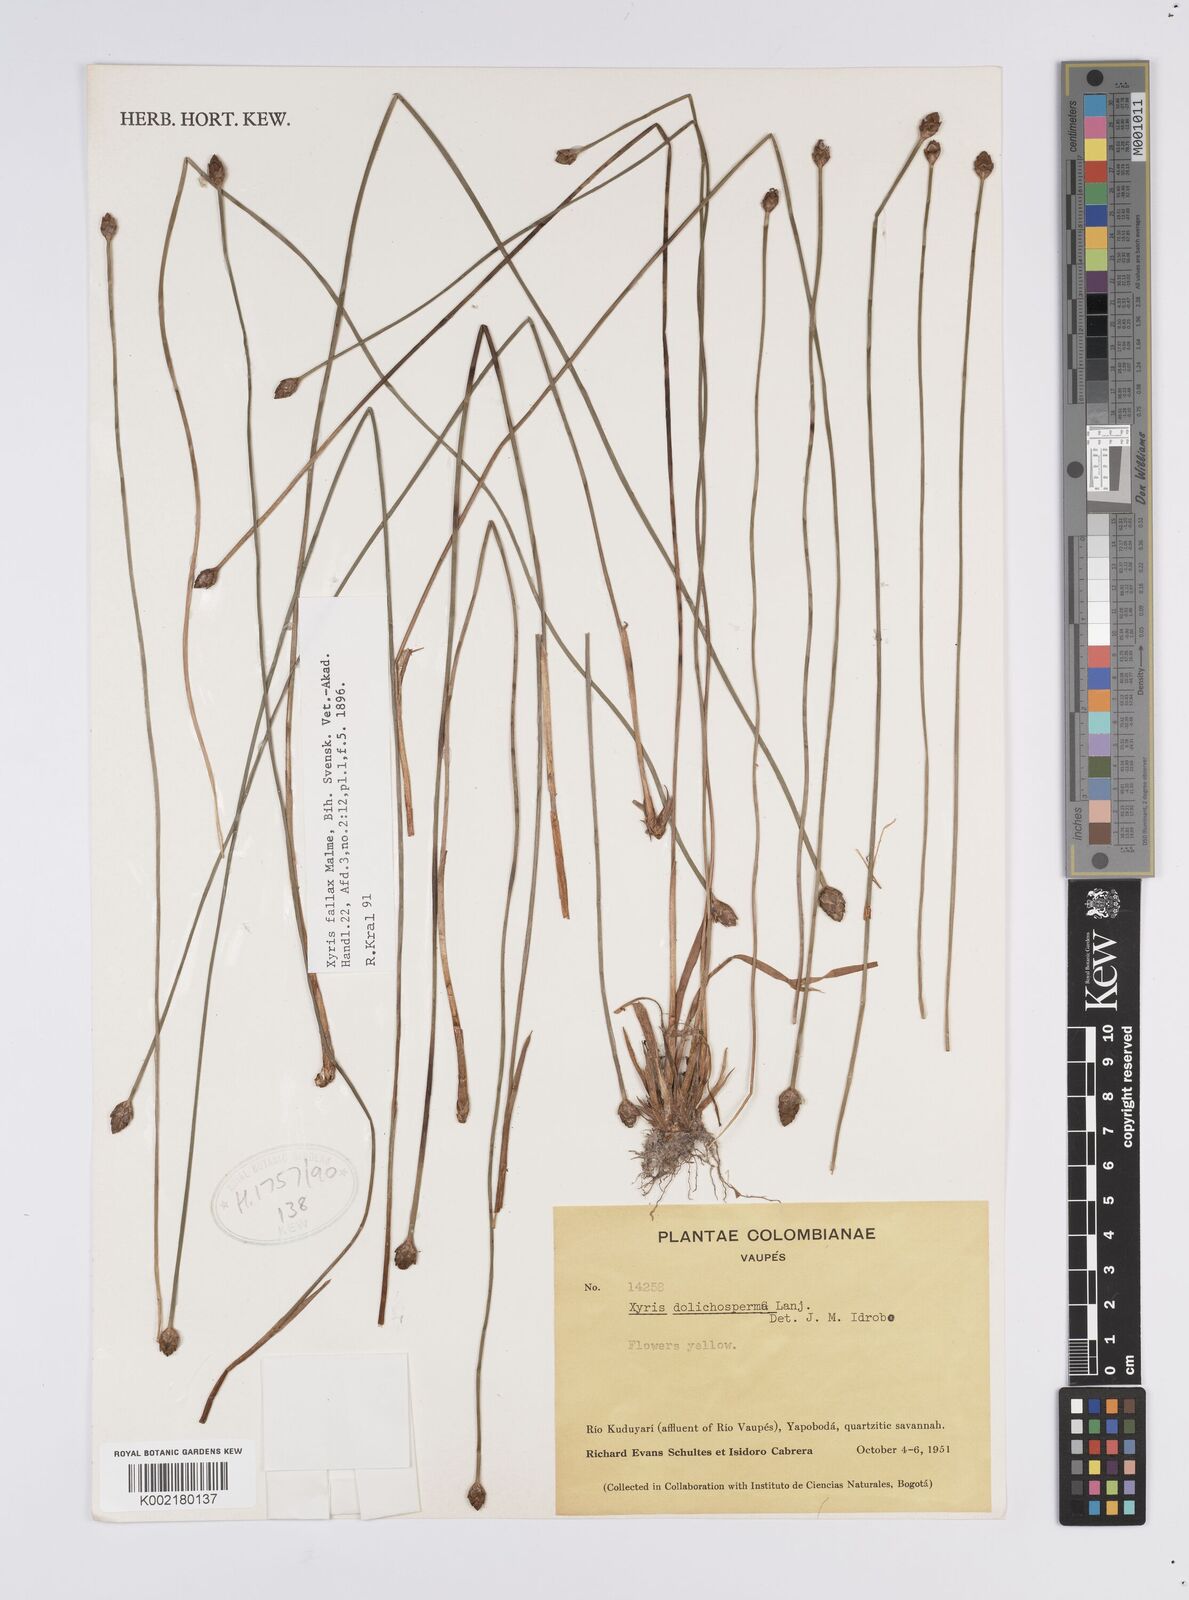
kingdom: Plantae
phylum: Tracheophyta
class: Liliopsida
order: Poales
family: Xyridaceae
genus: Xyris
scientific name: Xyris fallax
